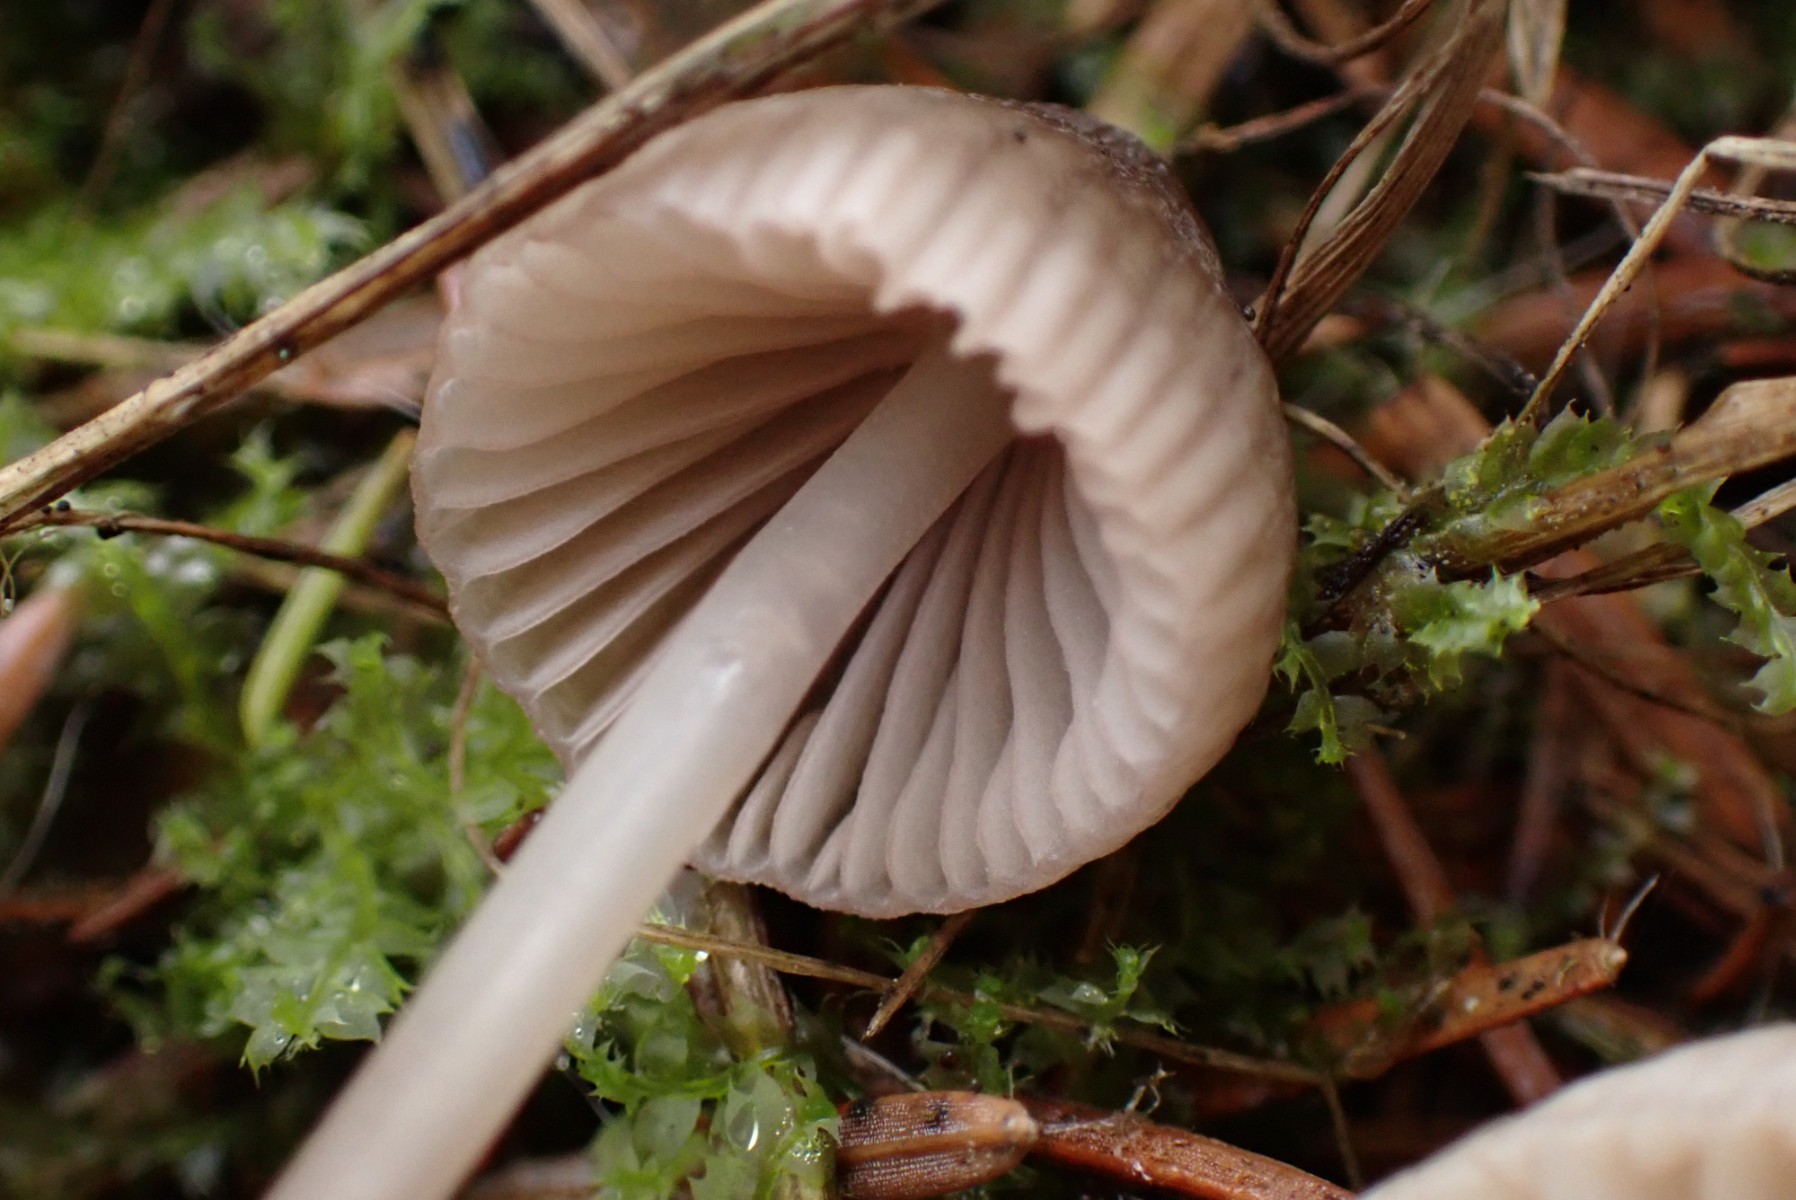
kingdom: Fungi
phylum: Basidiomycota
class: Agaricomycetes
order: Agaricales
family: Mycenaceae
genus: Mycena
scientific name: Mycena capillaripes
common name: nåle-huesvamp
